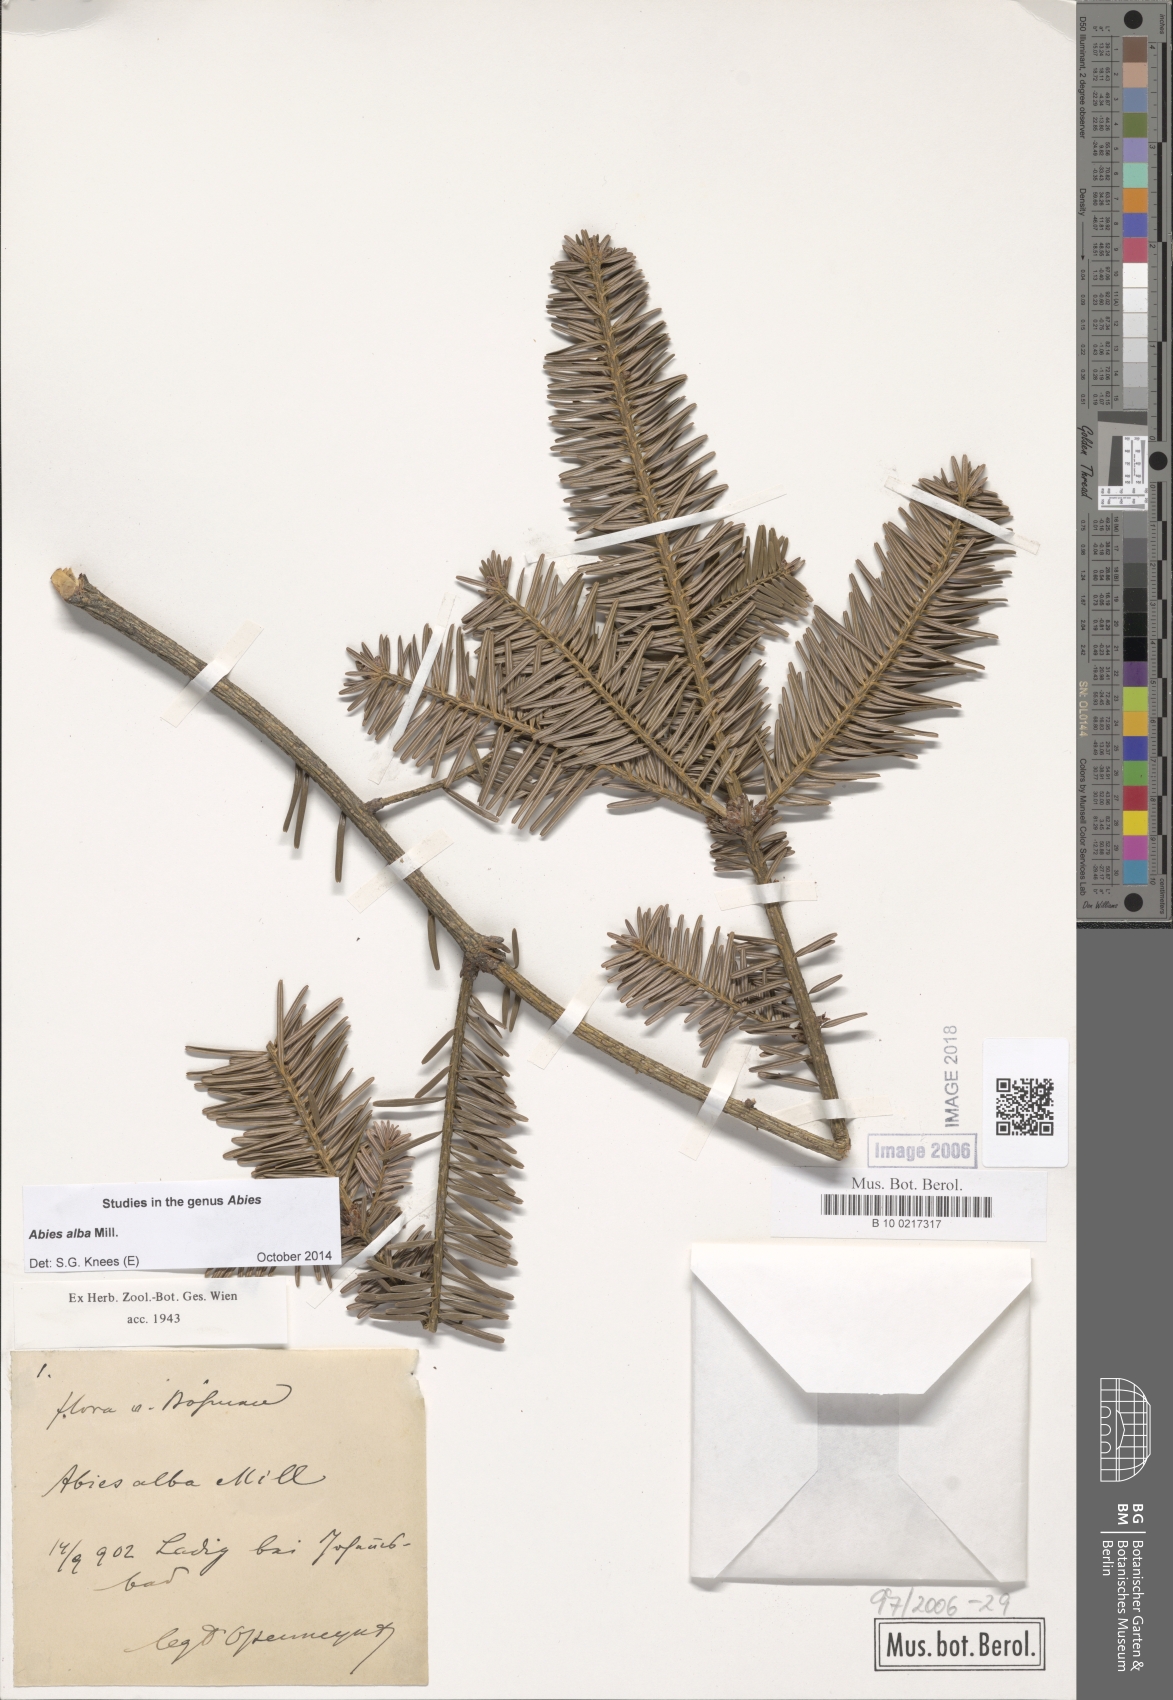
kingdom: Plantae
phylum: Tracheophyta
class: Pinopsida
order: Pinales
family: Pinaceae
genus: Abies
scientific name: Abies alba
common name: Silver fir
